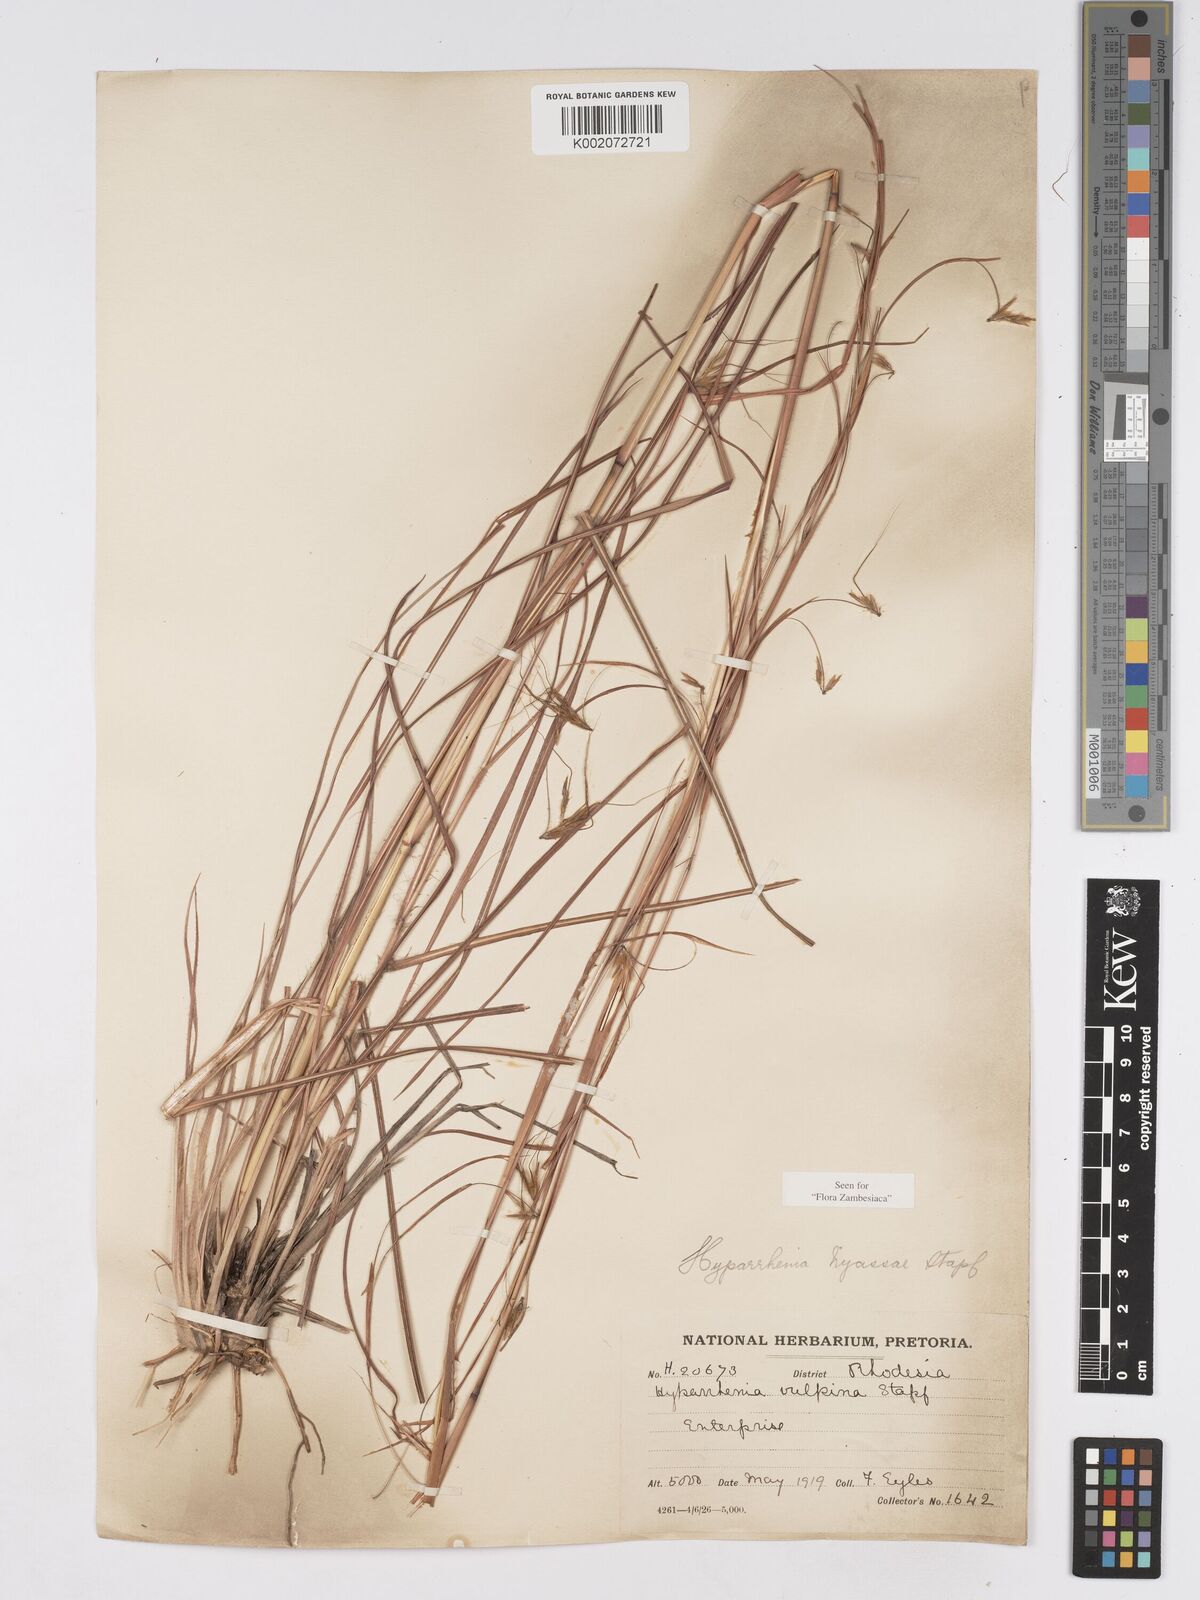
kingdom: Plantae
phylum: Tracheophyta
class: Liliopsida
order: Poales
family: Poaceae
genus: Hyparrhenia
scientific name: Hyparrhenia nyassae
